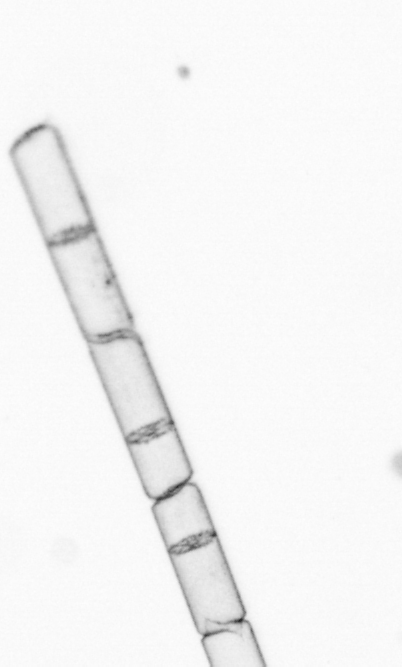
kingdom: Chromista
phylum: Ochrophyta
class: Bacillariophyceae
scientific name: Bacillariophyceae
